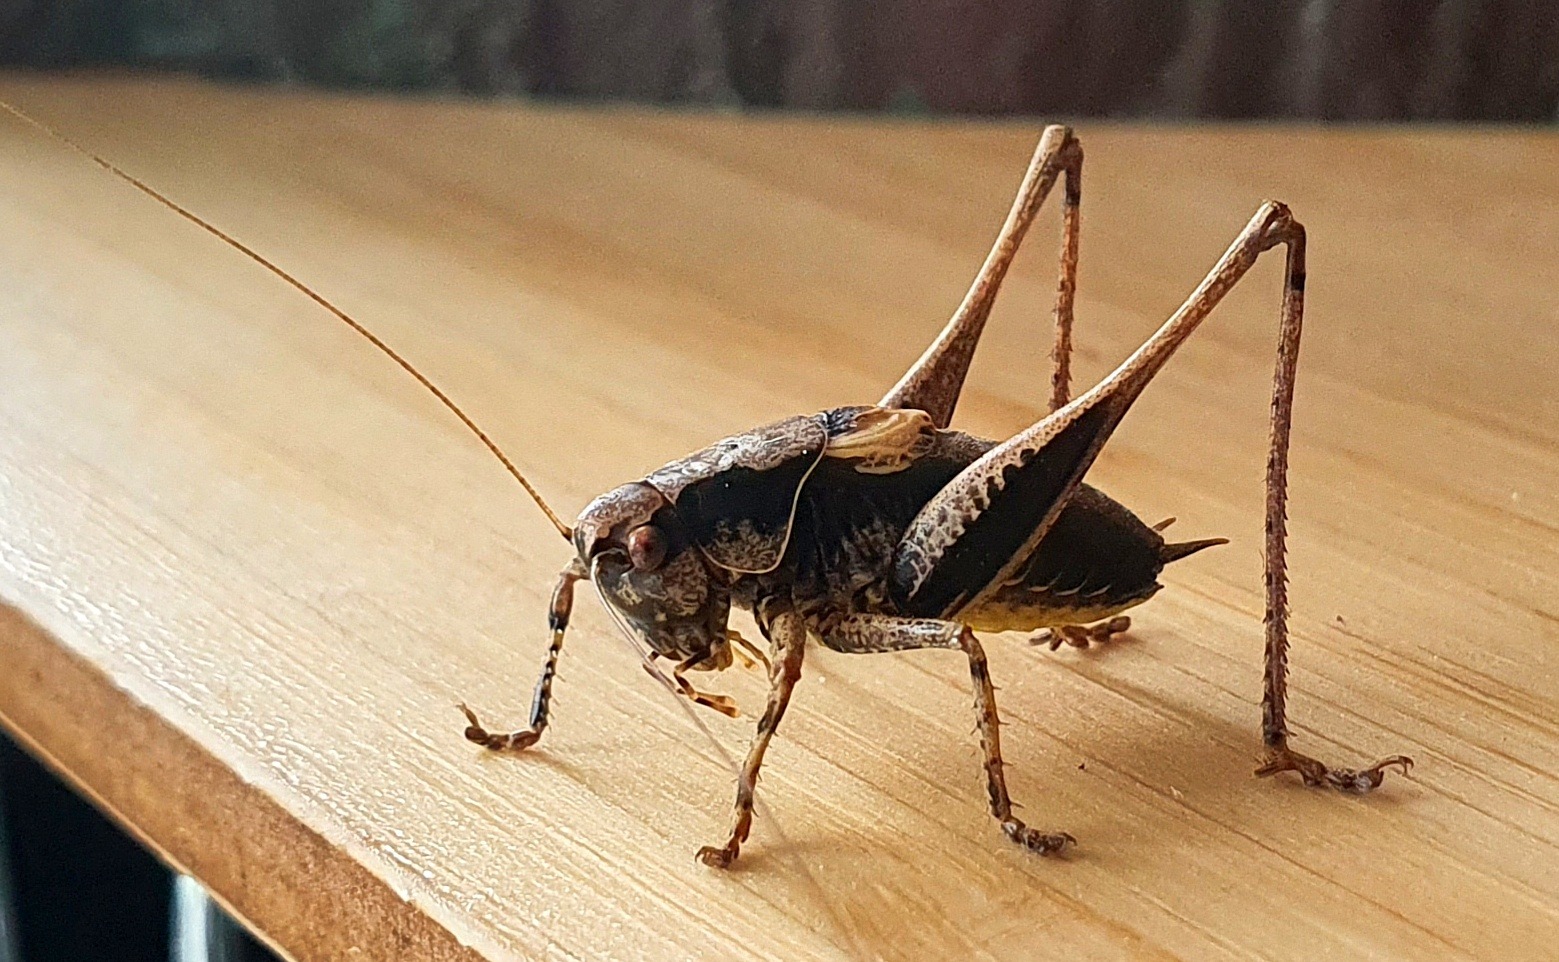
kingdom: Animalia
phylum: Arthropoda
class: Insecta
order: Orthoptera
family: Tettigoniidae
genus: Pholidoptera
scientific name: Pholidoptera griseoaptera
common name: Buskgræshoppe
